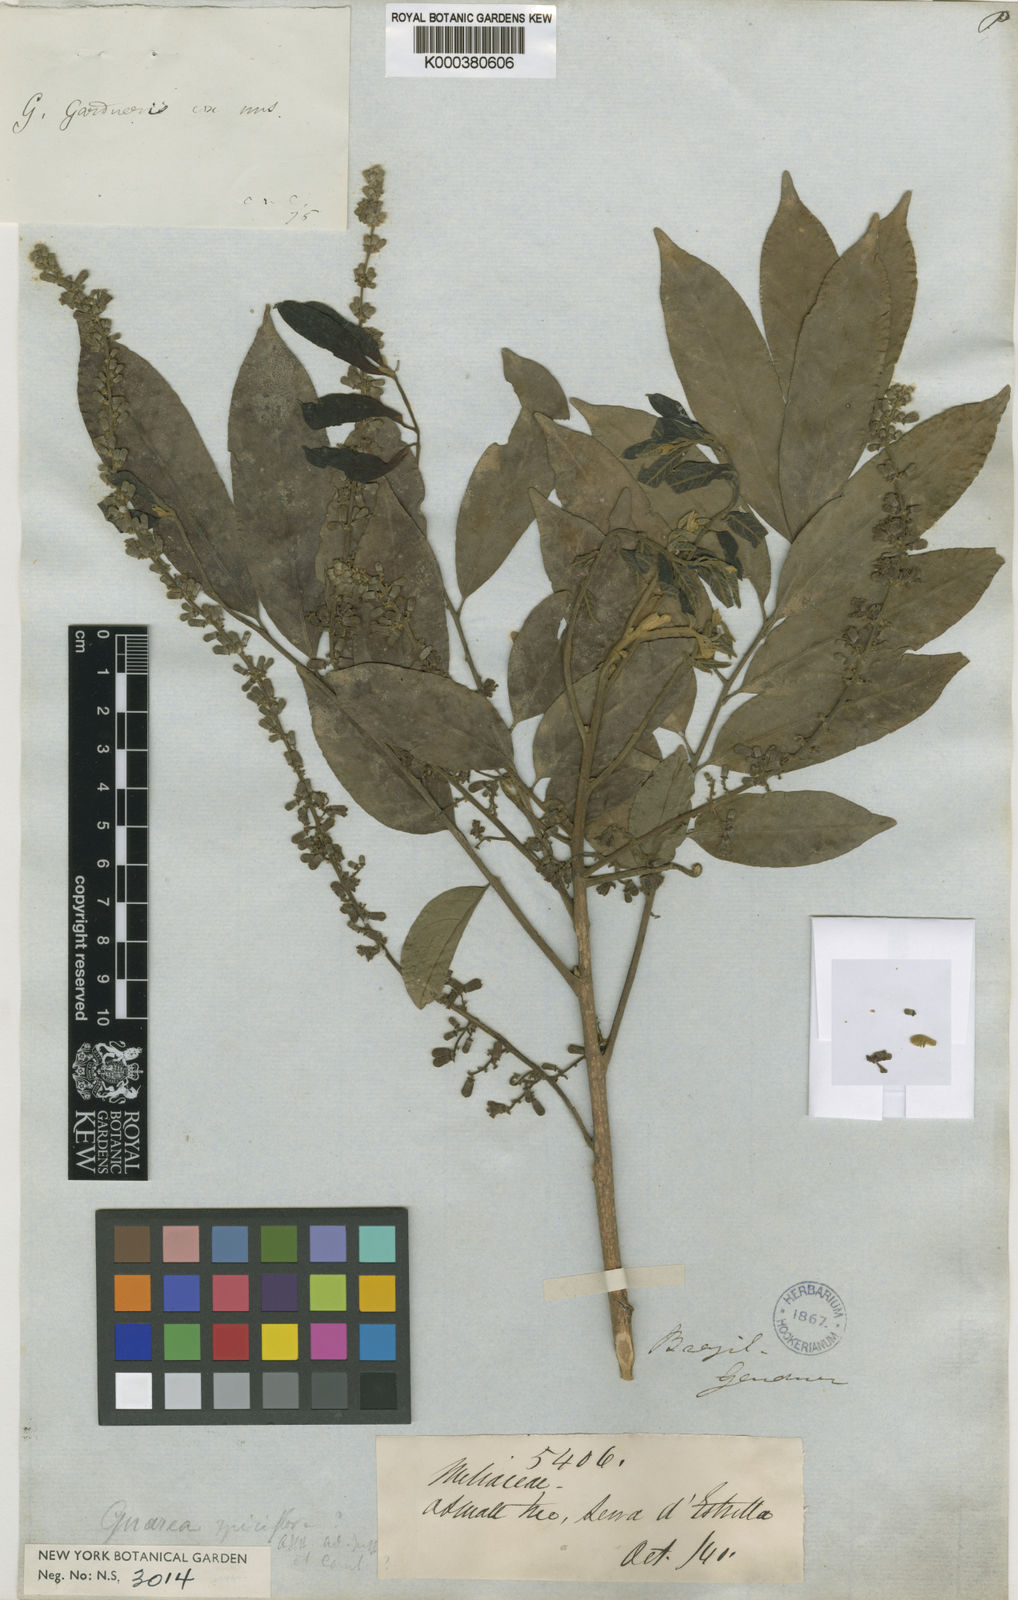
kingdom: Plantae
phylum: Tracheophyta
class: Magnoliopsida
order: Sapindales
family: Meliaceae
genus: Guarea
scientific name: Guarea macrophylla
